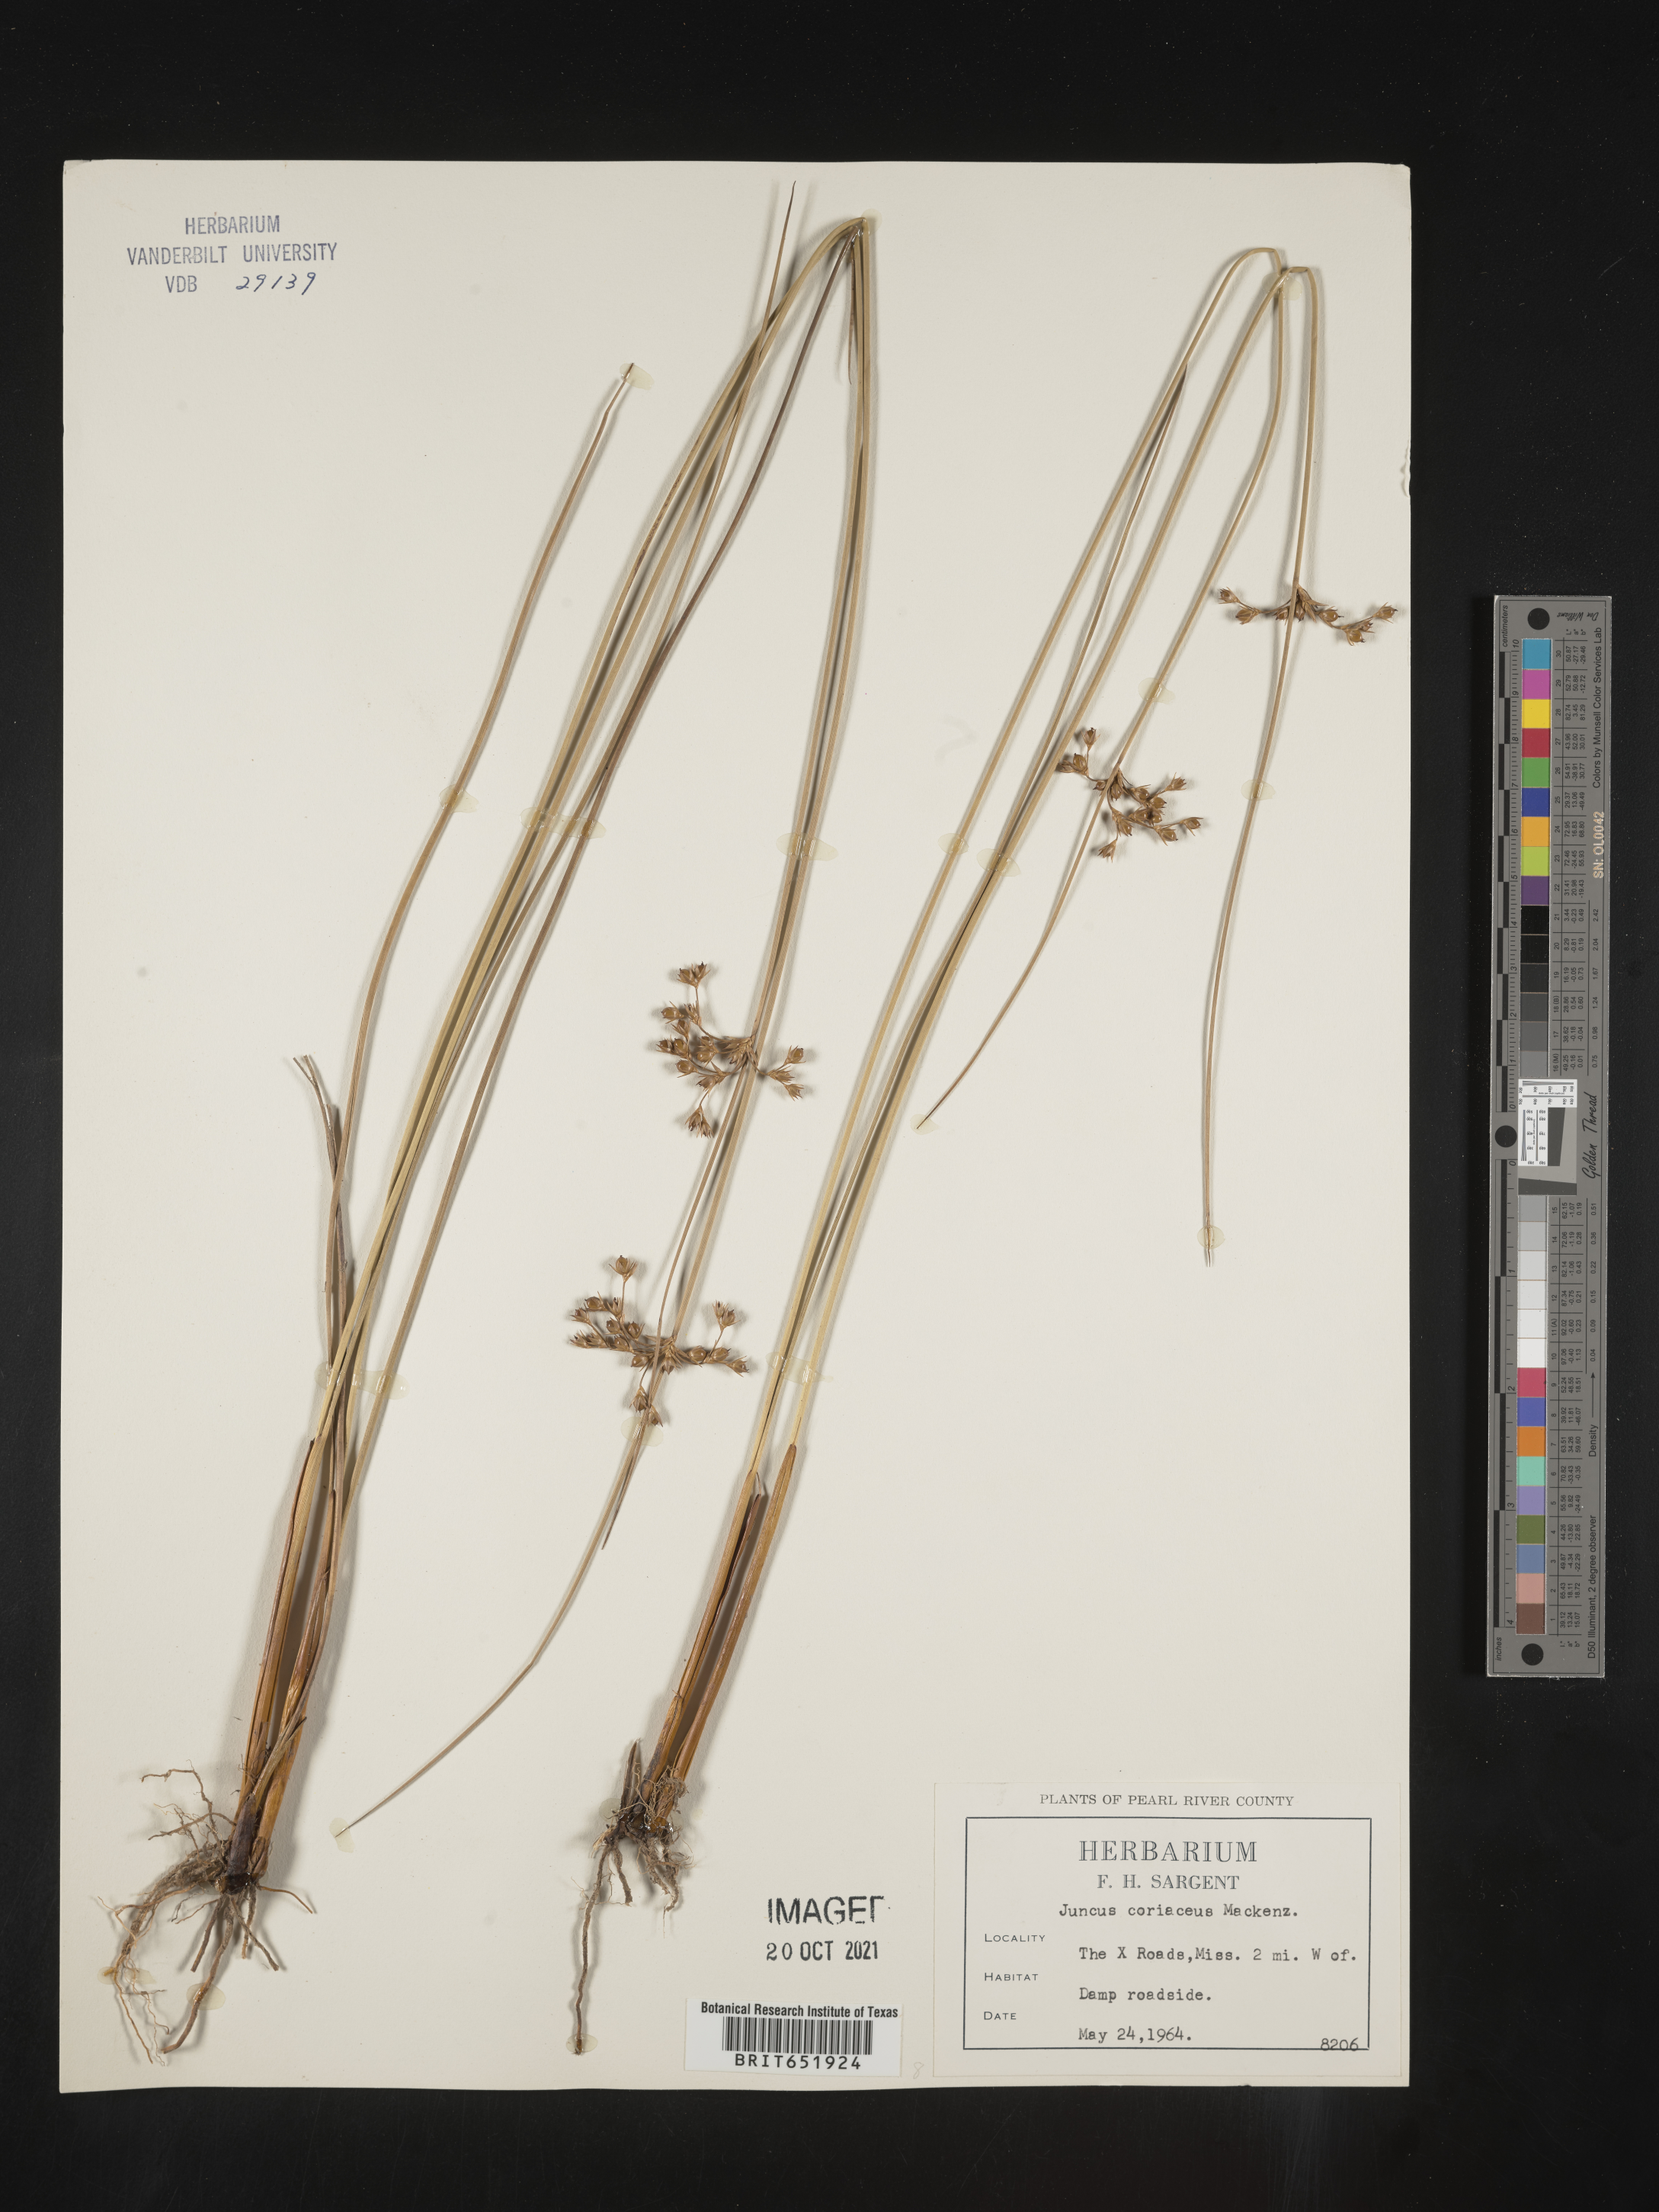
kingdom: Plantae
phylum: Tracheophyta
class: Liliopsida
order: Poales
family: Juncaceae
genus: Juncus
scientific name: Juncus coriaceus
